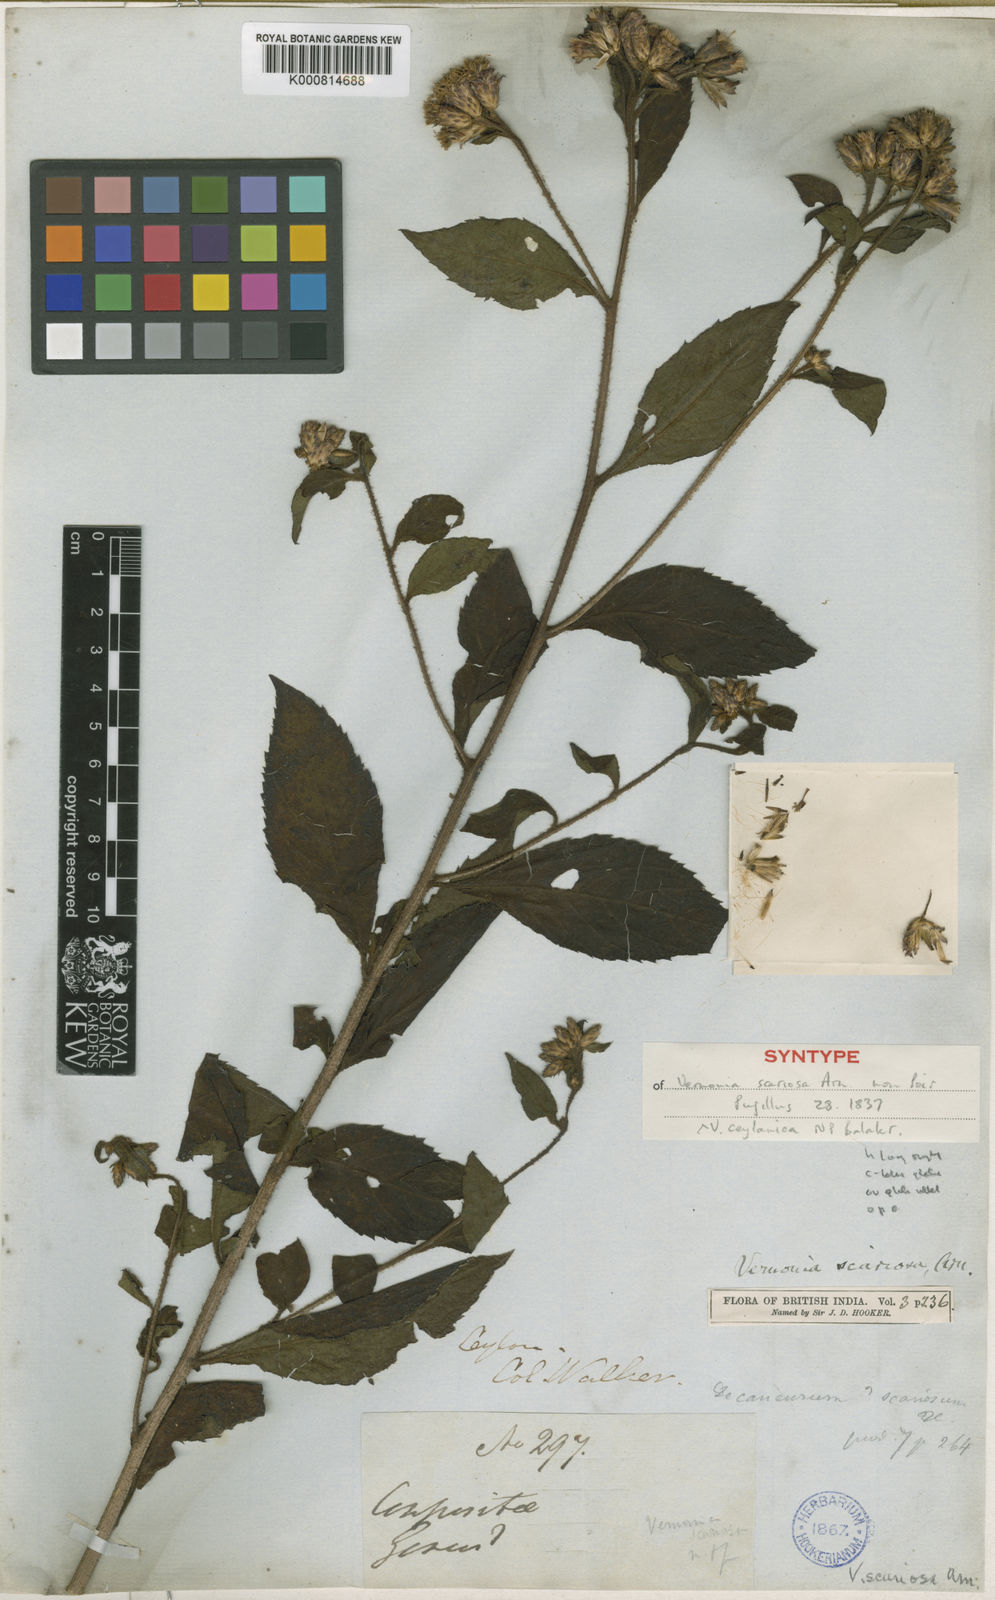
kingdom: Plantae
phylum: Tracheophyta
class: Magnoliopsida
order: Asterales
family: Asteraceae
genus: Acilepis
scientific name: Acilepis scariosa
